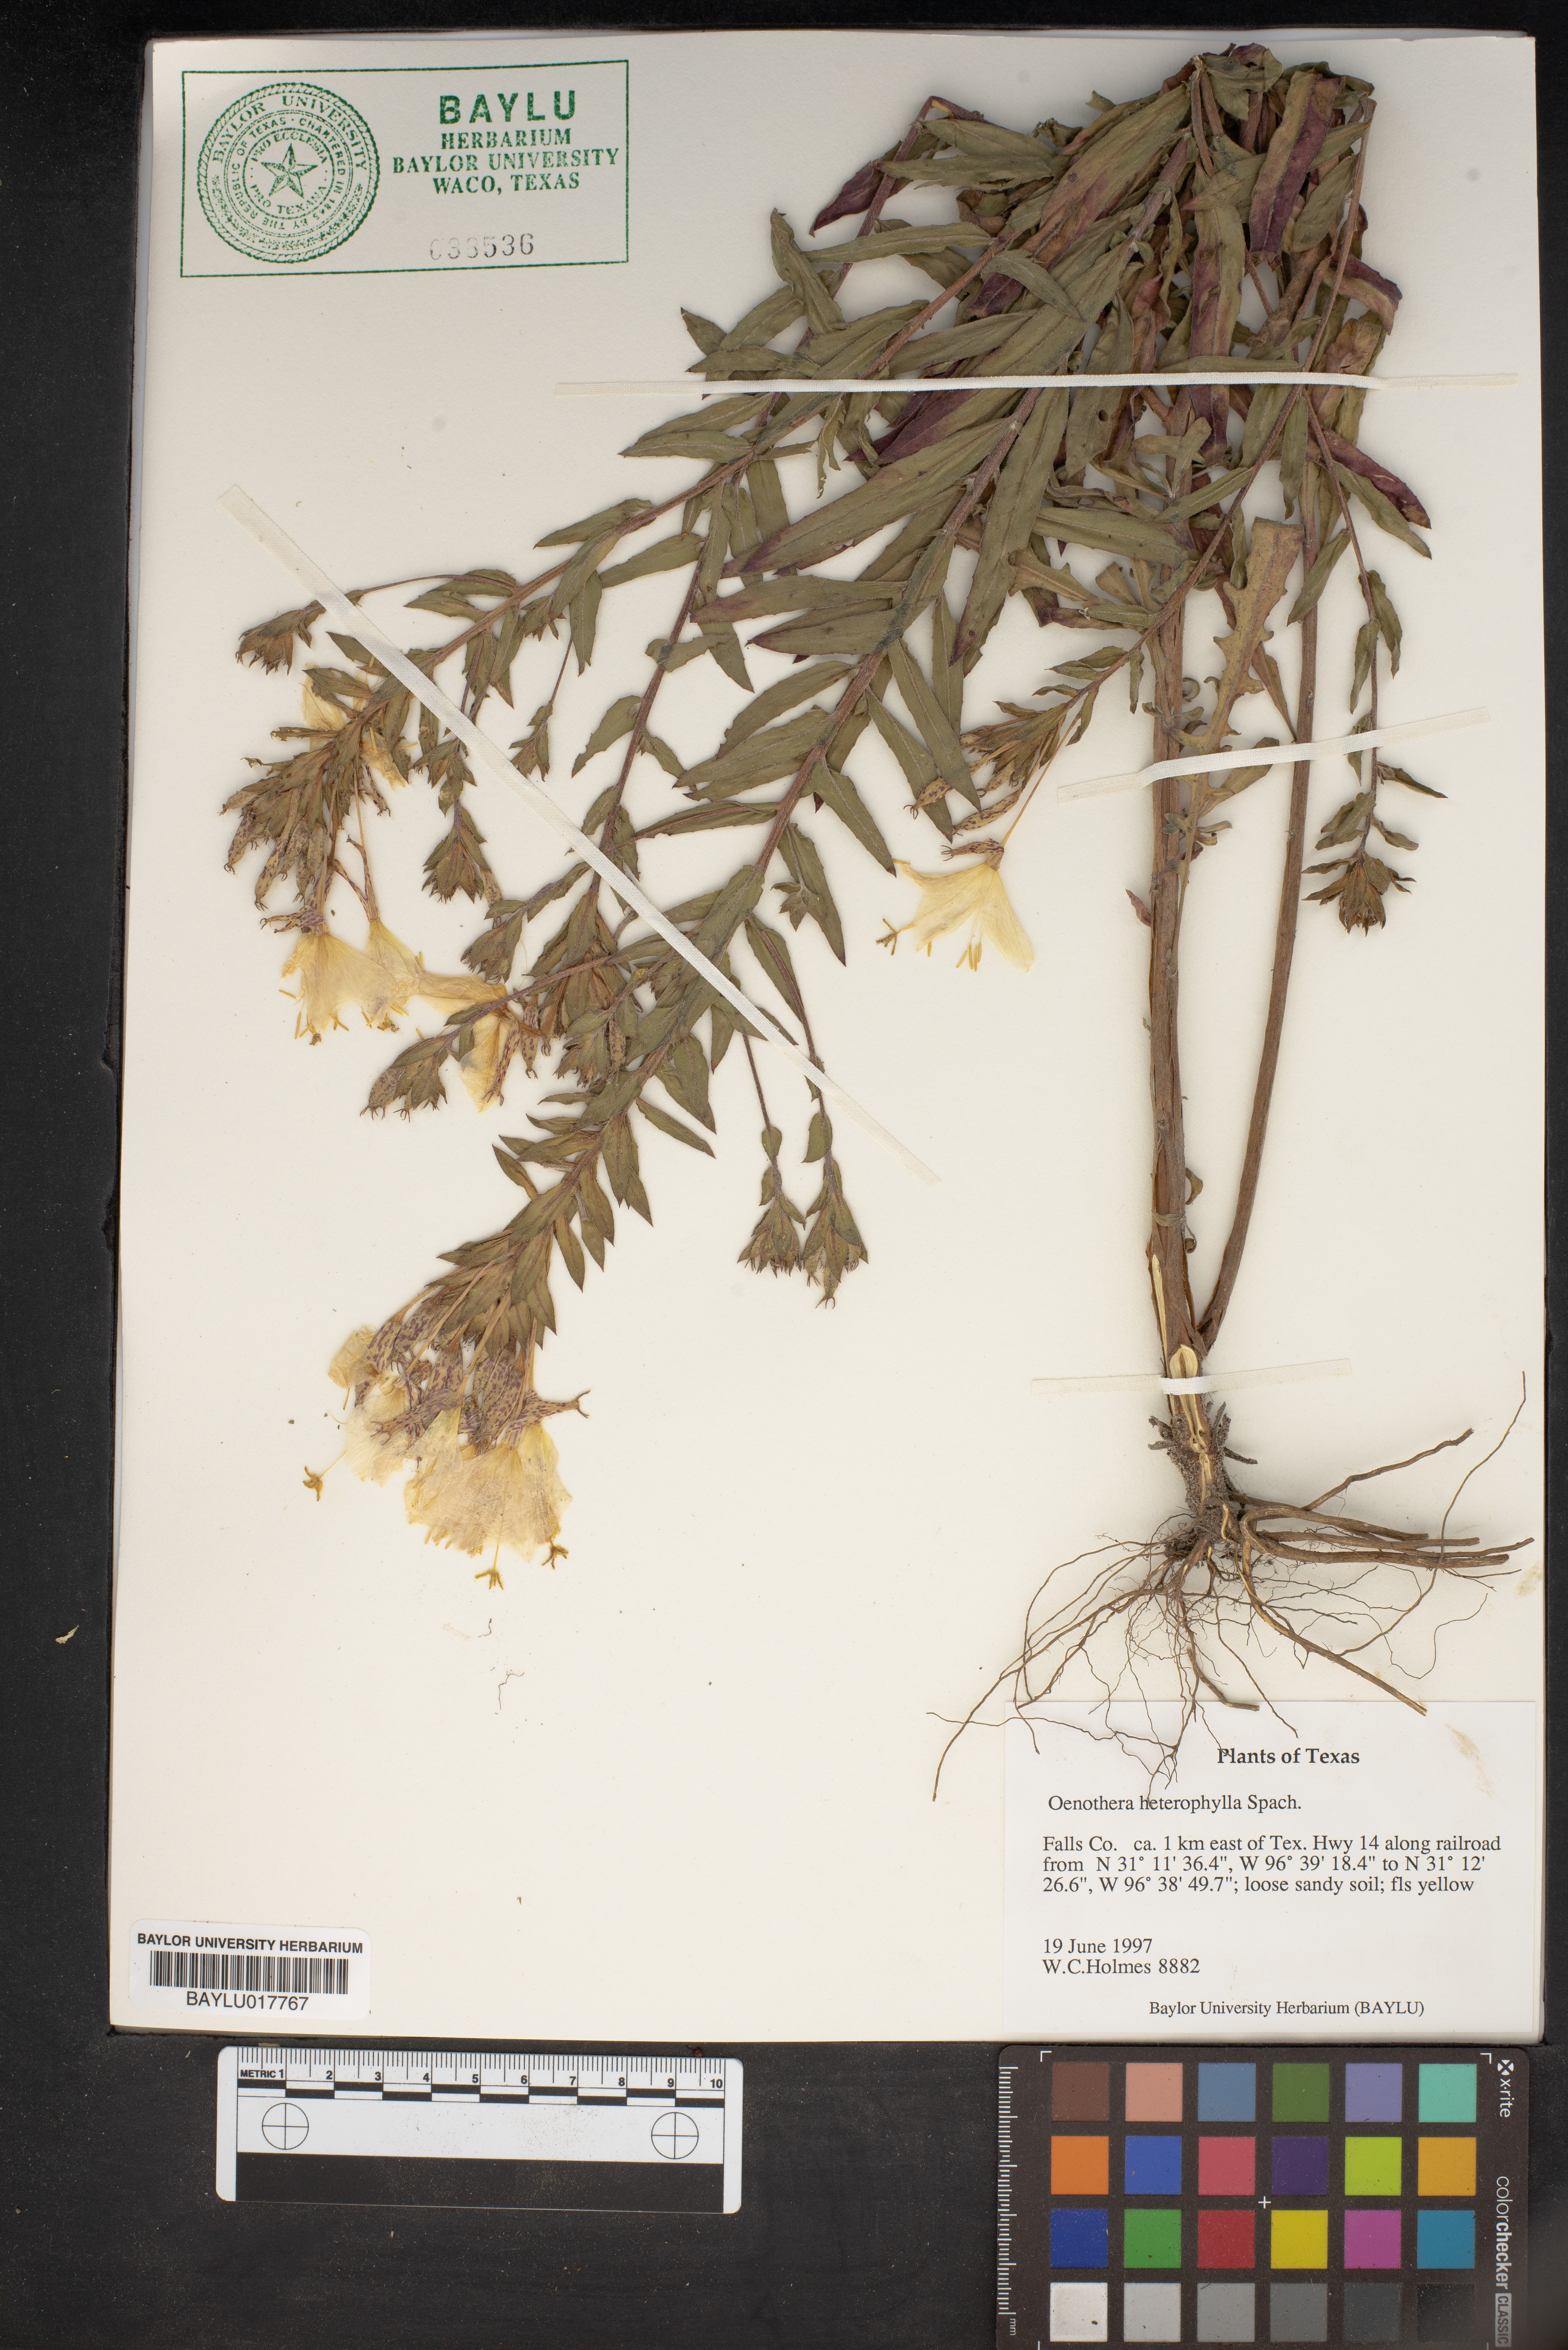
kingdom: Plantae
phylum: Tracheophyta
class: Magnoliopsida
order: Myrtales
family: Onagraceae
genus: Camissonia
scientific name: Camissonia dentata
